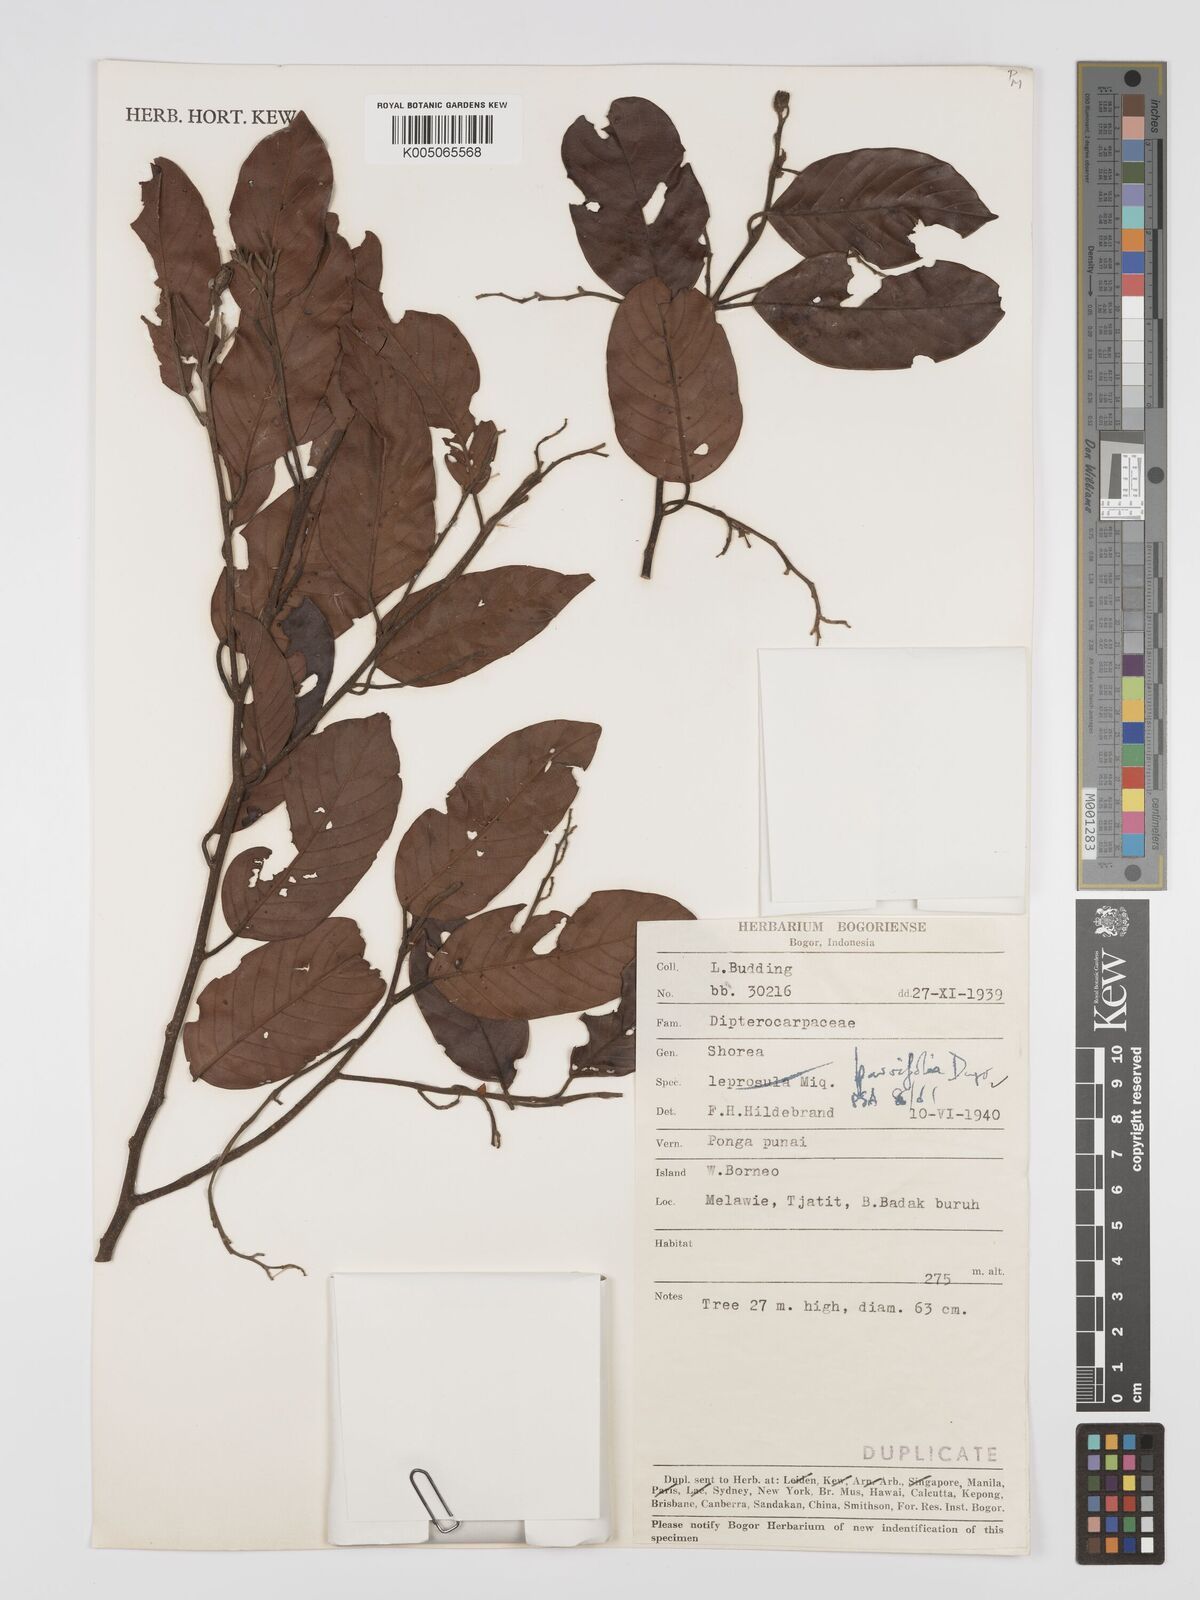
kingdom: Plantae
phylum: Tracheophyta
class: Magnoliopsida
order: Malvales
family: Dipterocarpaceae
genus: Shorea
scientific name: Shorea parvifolia
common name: Light red meranti
